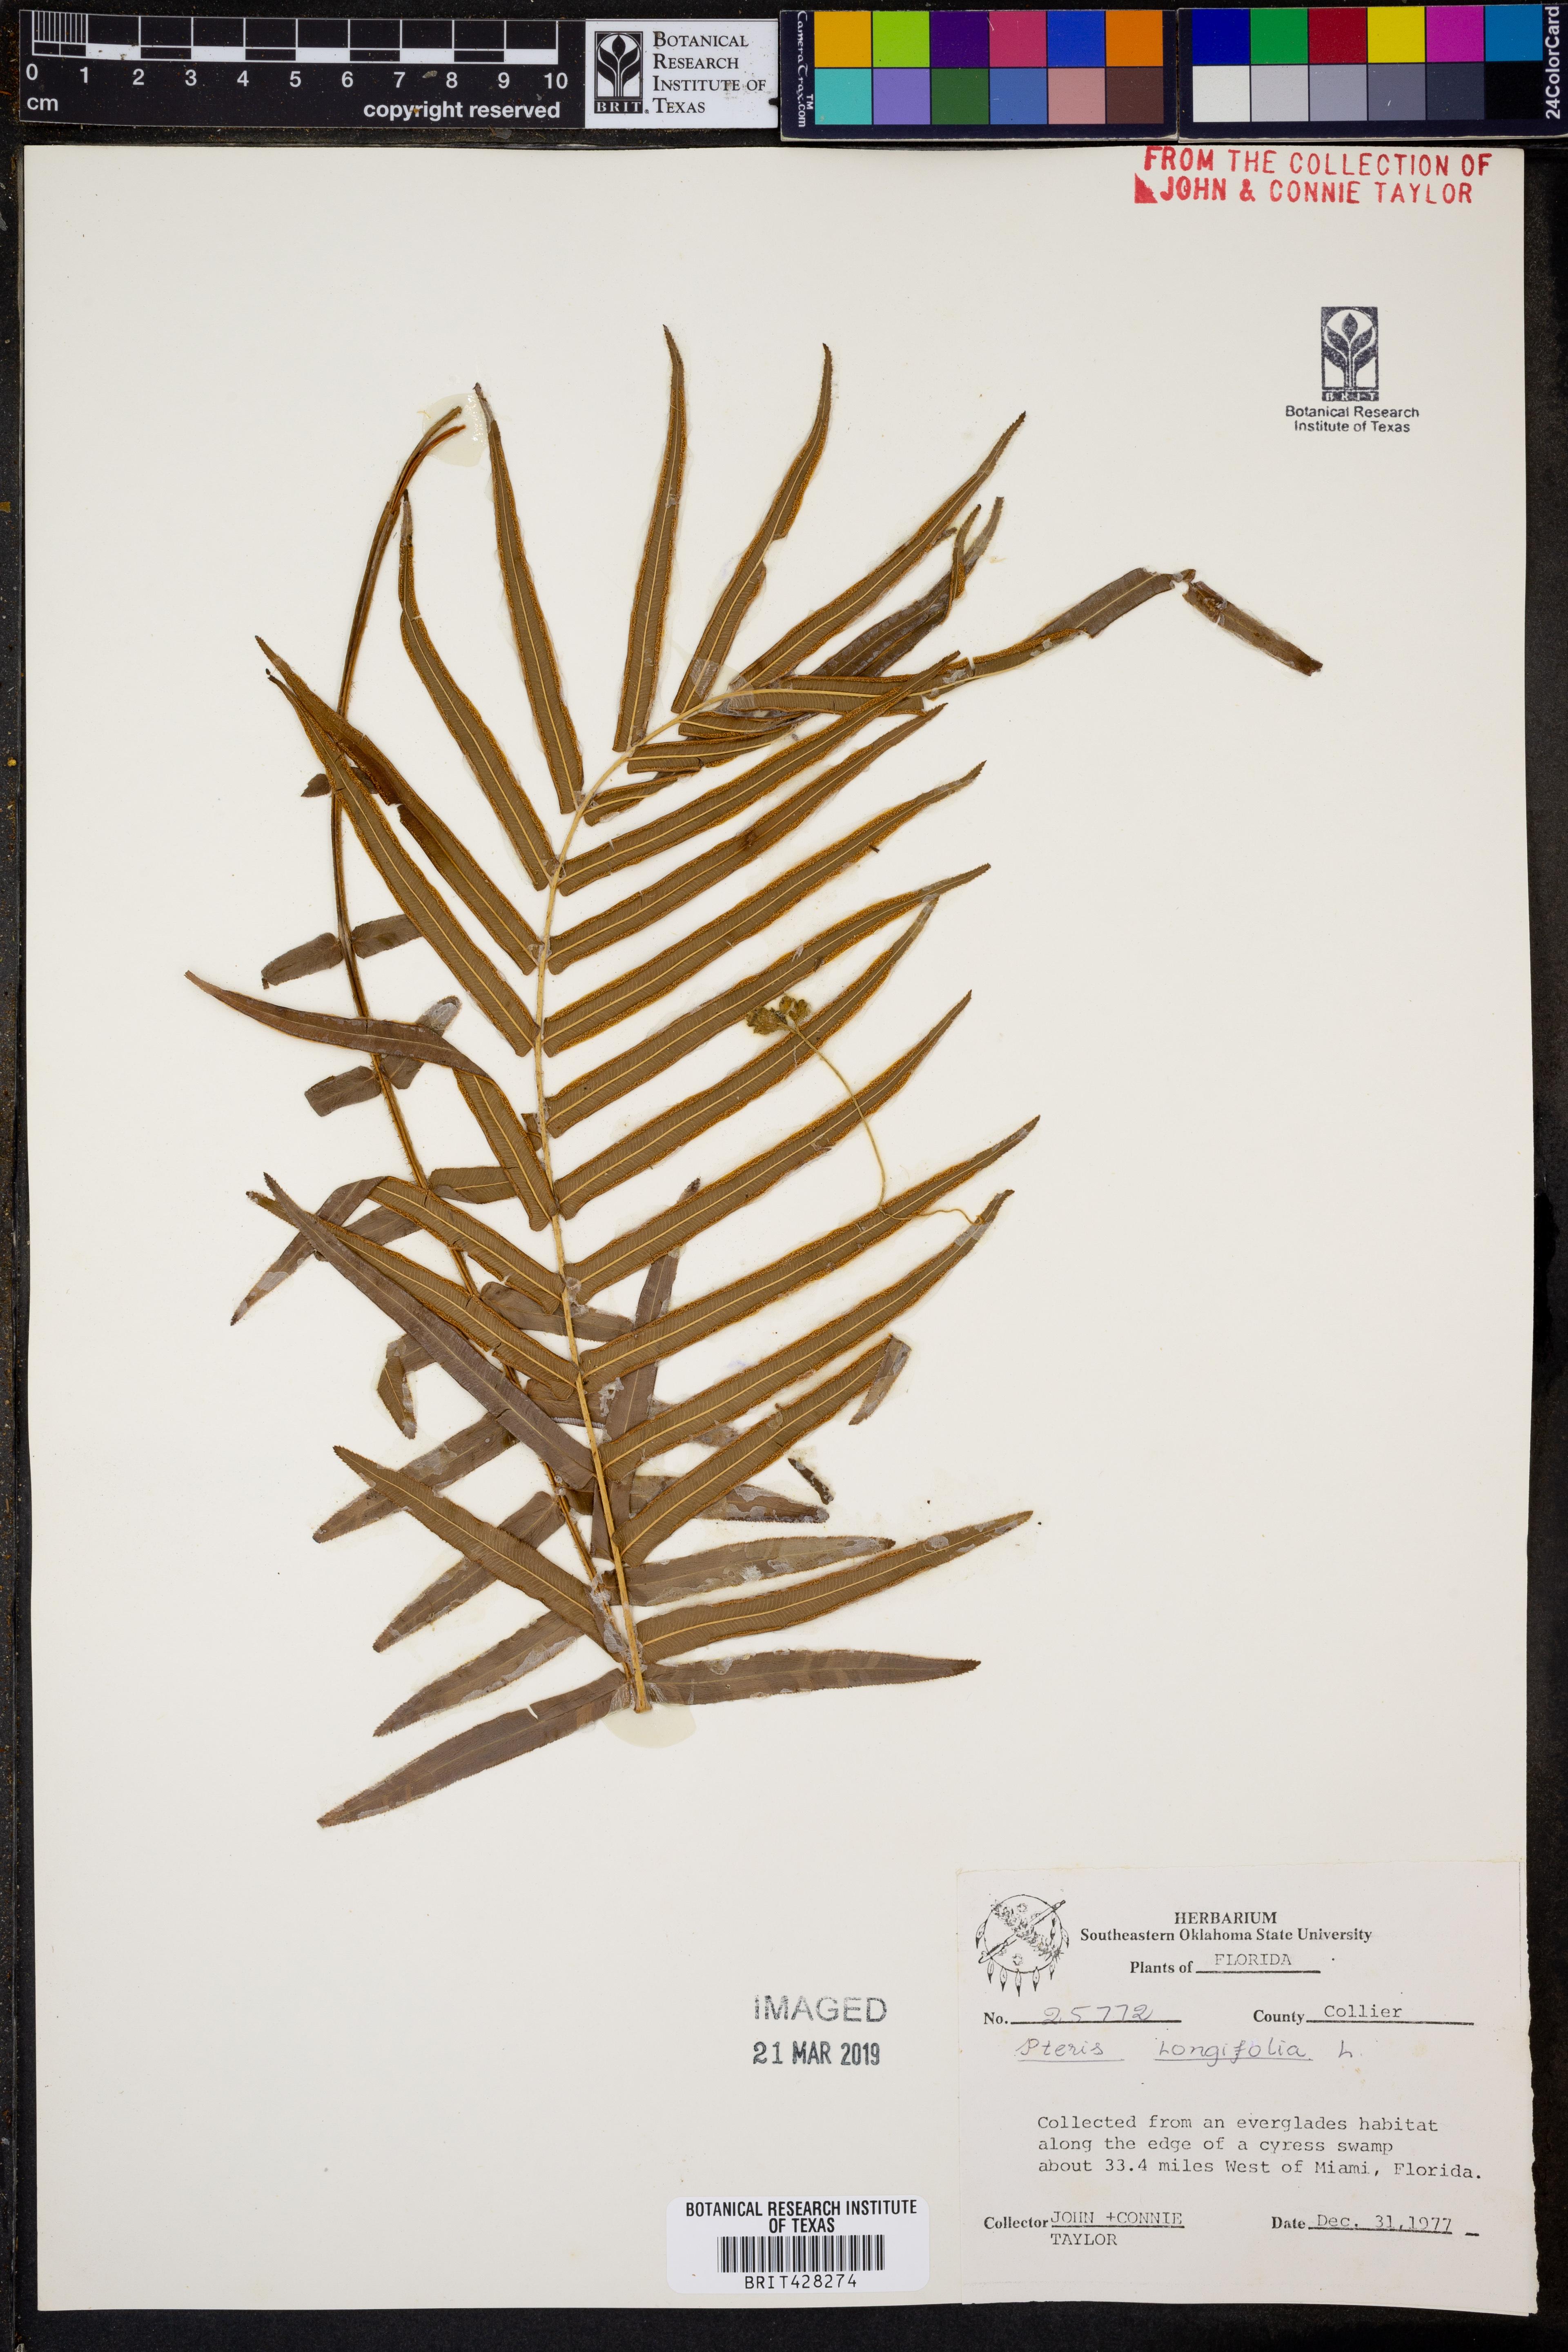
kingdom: Plantae
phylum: Tracheophyta
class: Polypodiopsida
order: Polypodiales
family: Pteridaceae
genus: Pteris
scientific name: Pteris longifolia
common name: Longleaf brake
